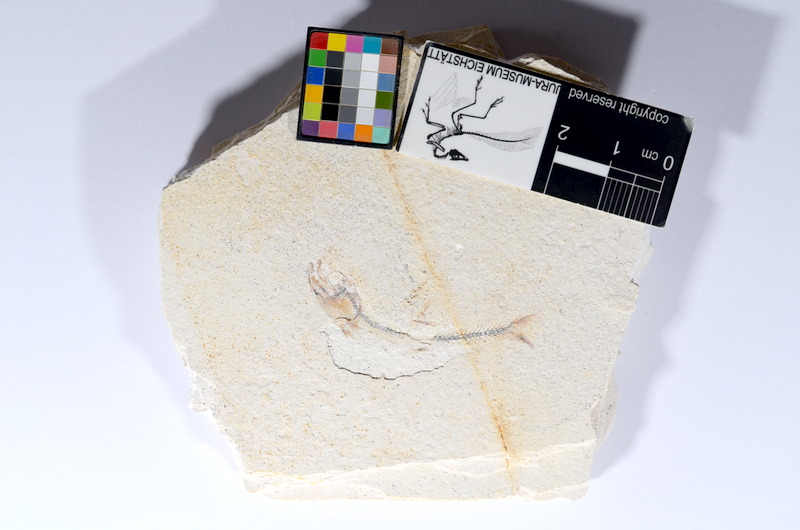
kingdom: Animalia
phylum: Chordata
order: Salmoniformes
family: Orthogonikleithridae
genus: Orthogonikleithrus
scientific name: Orthogonikleithrus hoelli
